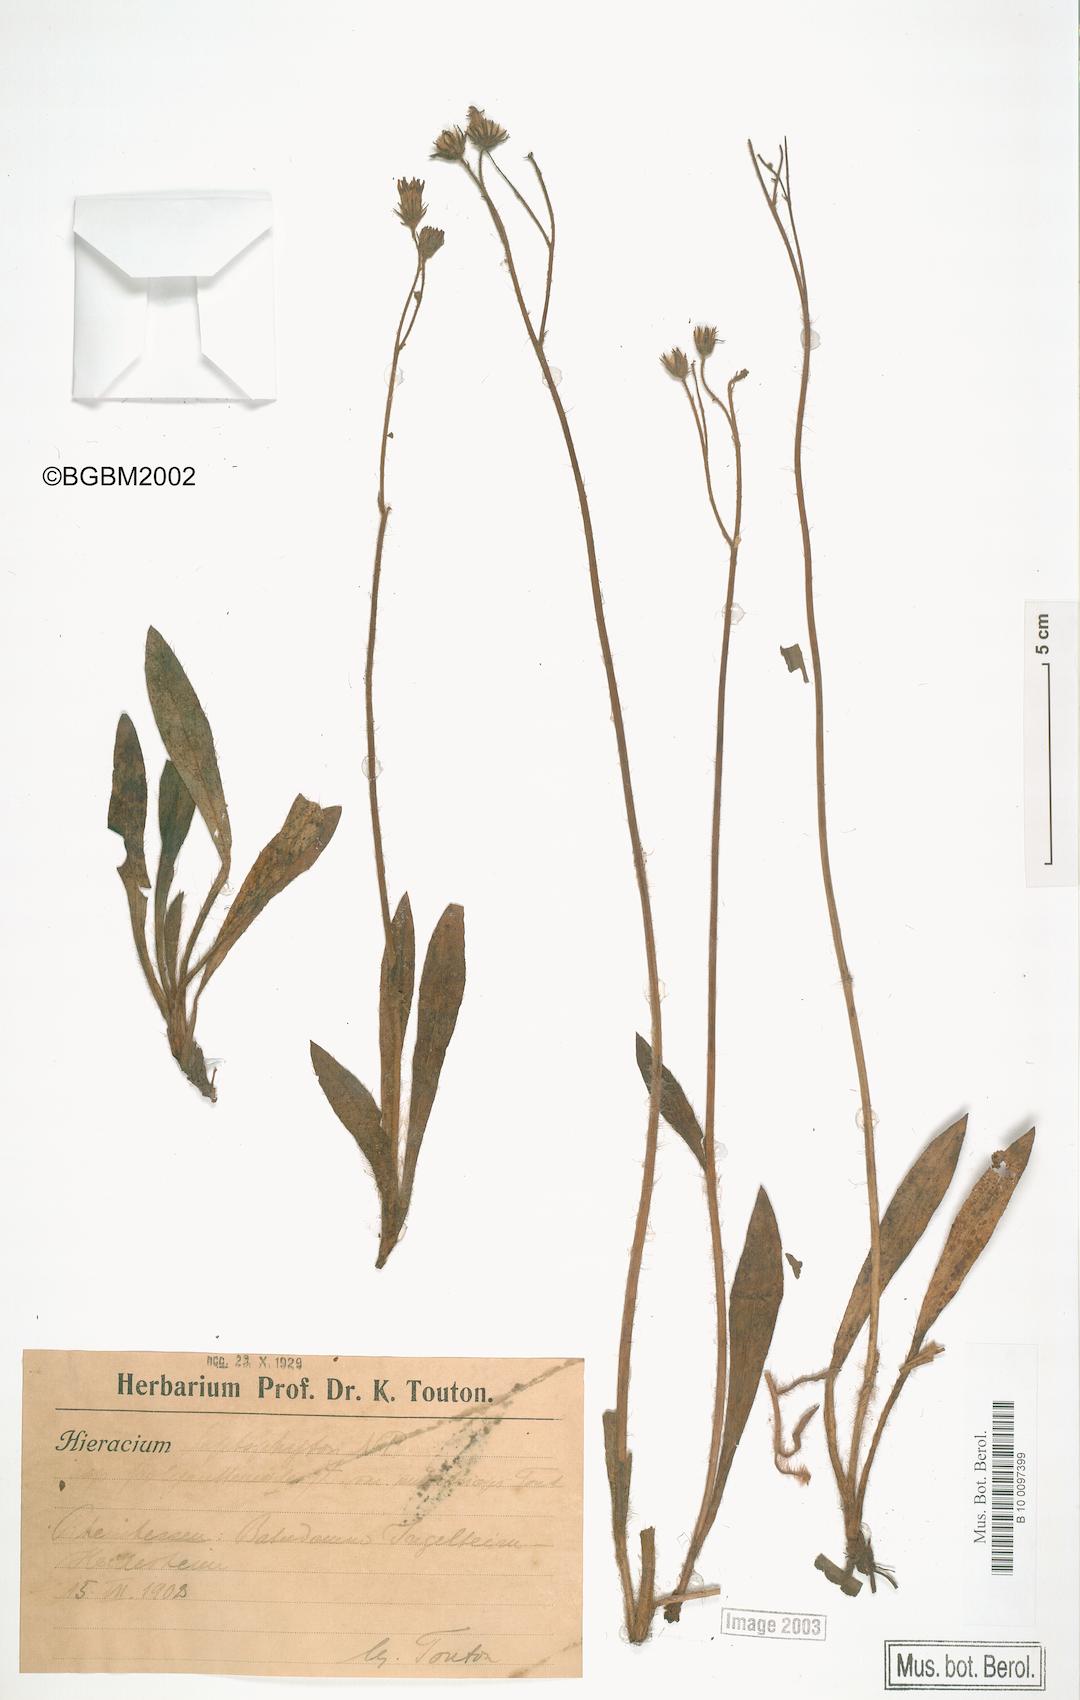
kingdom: Plantae
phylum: Tracheophyta
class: Magnoliopsida
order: Asterales
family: Asteraceae
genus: Pilosella
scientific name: Pilosella leptophyton
